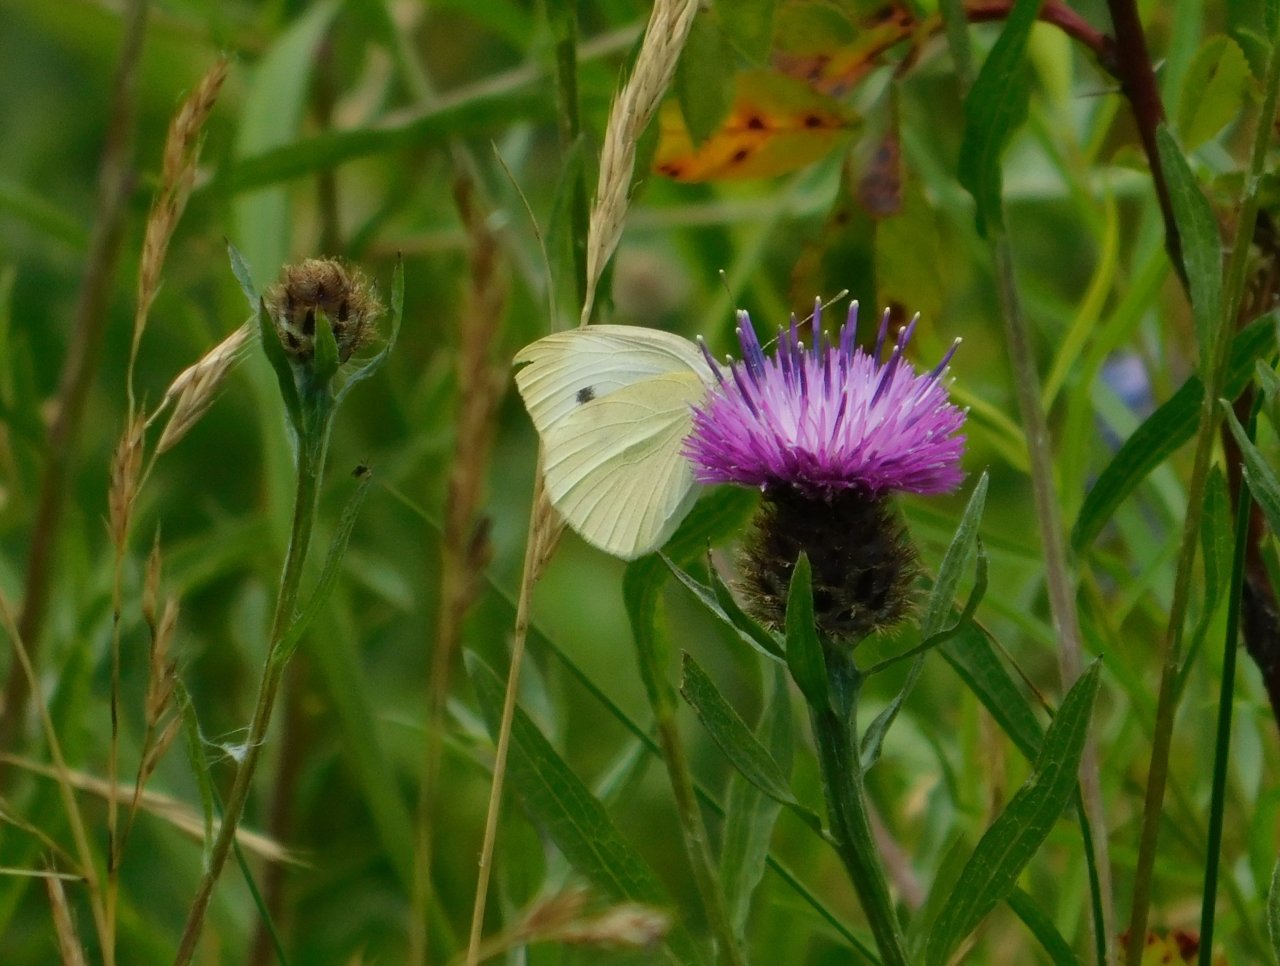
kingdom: Animalia
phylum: Arthropoda
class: Insecta
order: Lepidoptera
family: Pieridae
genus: Pieris
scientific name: Pieris rapae
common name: Cabbage White
